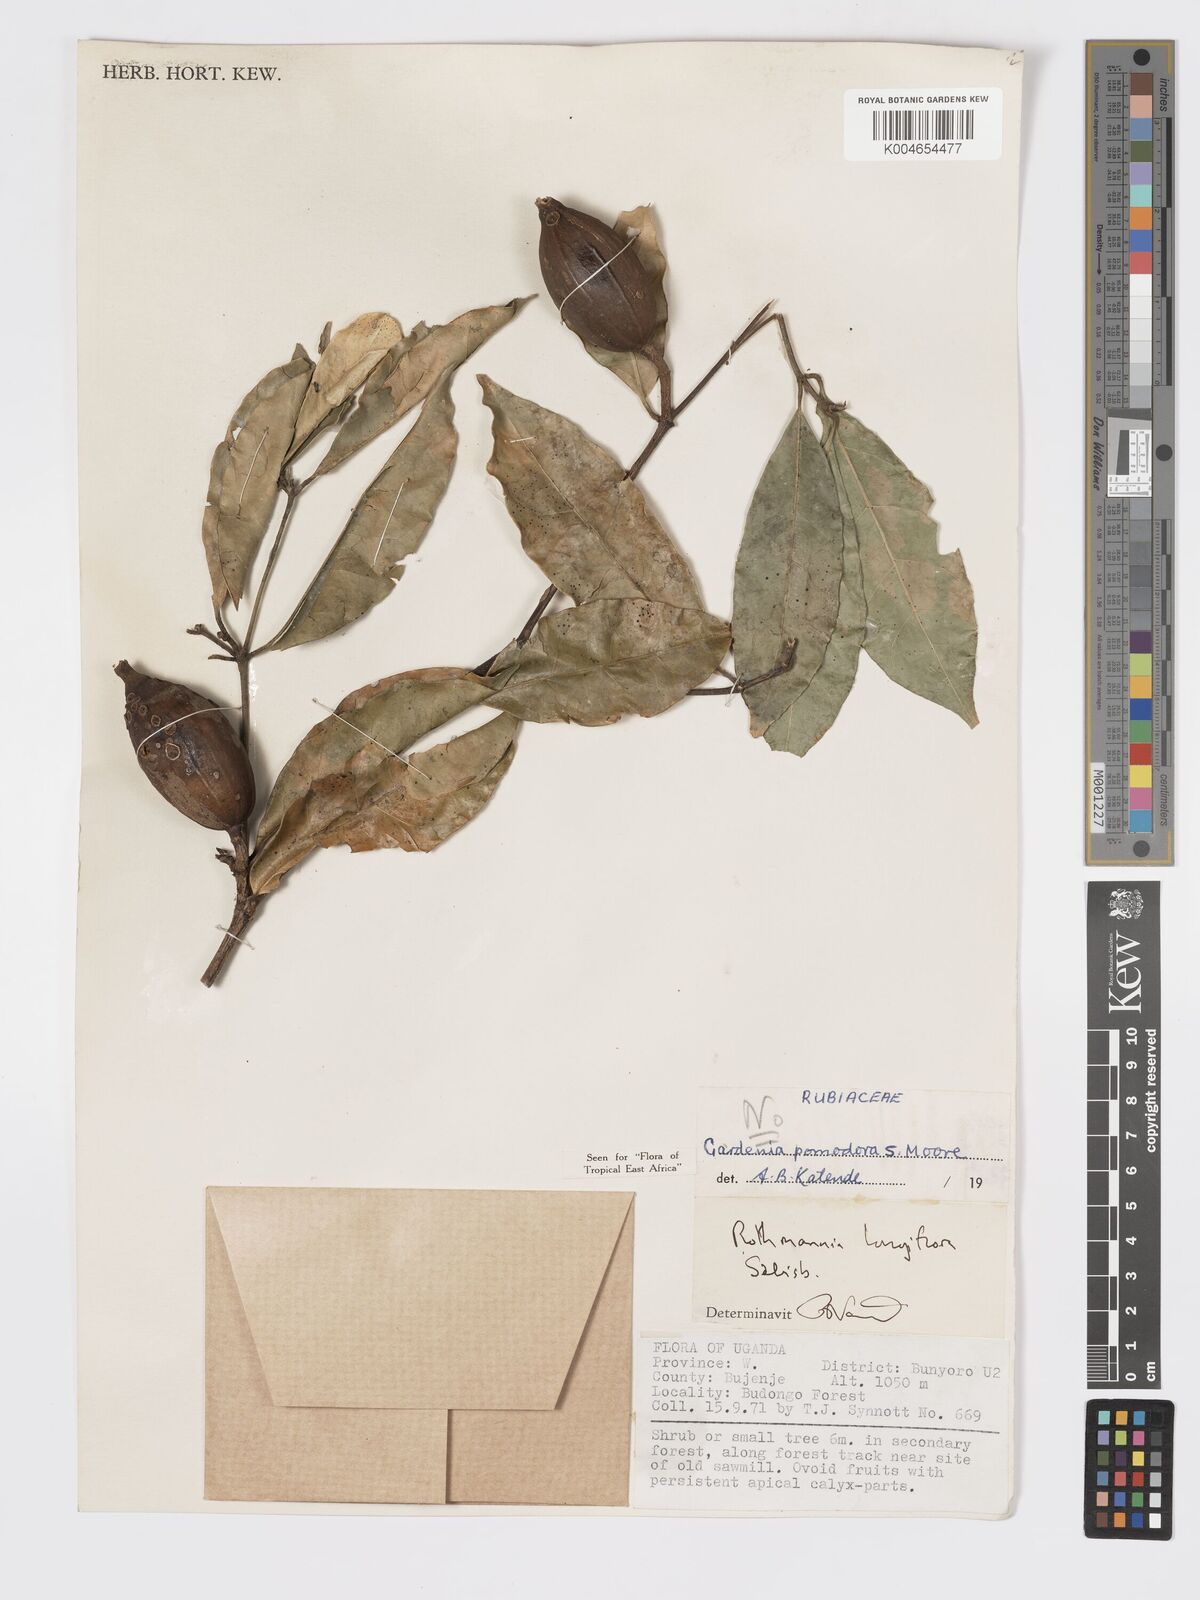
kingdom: Plantae
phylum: Tracheophyta
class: Magnoliopsida
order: Gentianales
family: Rubiaceae
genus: Rothmannia
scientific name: Rothmannia longiflora
